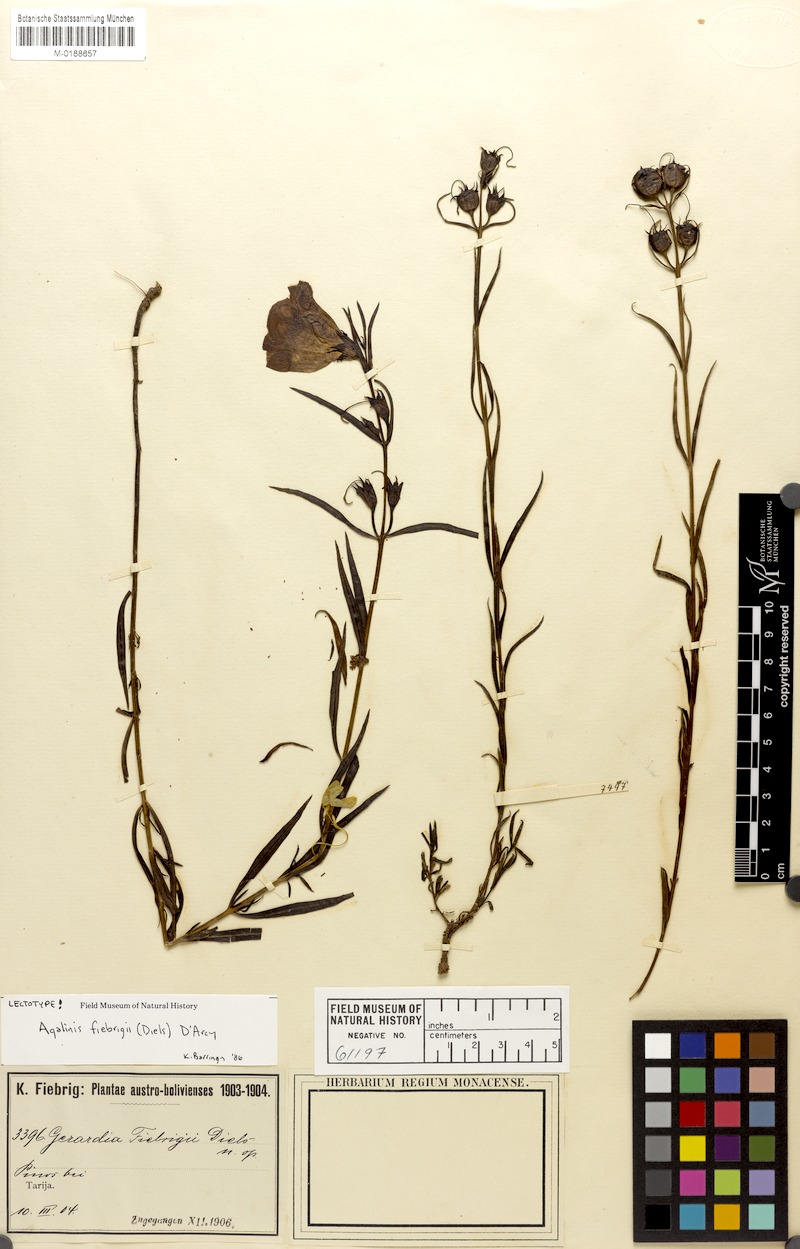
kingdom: Plantae
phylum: Tracheophyta
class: Magnoliopsida
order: Lamiales
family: Orobanchaceae
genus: Agalinis
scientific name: Agalinis fiebrigii
